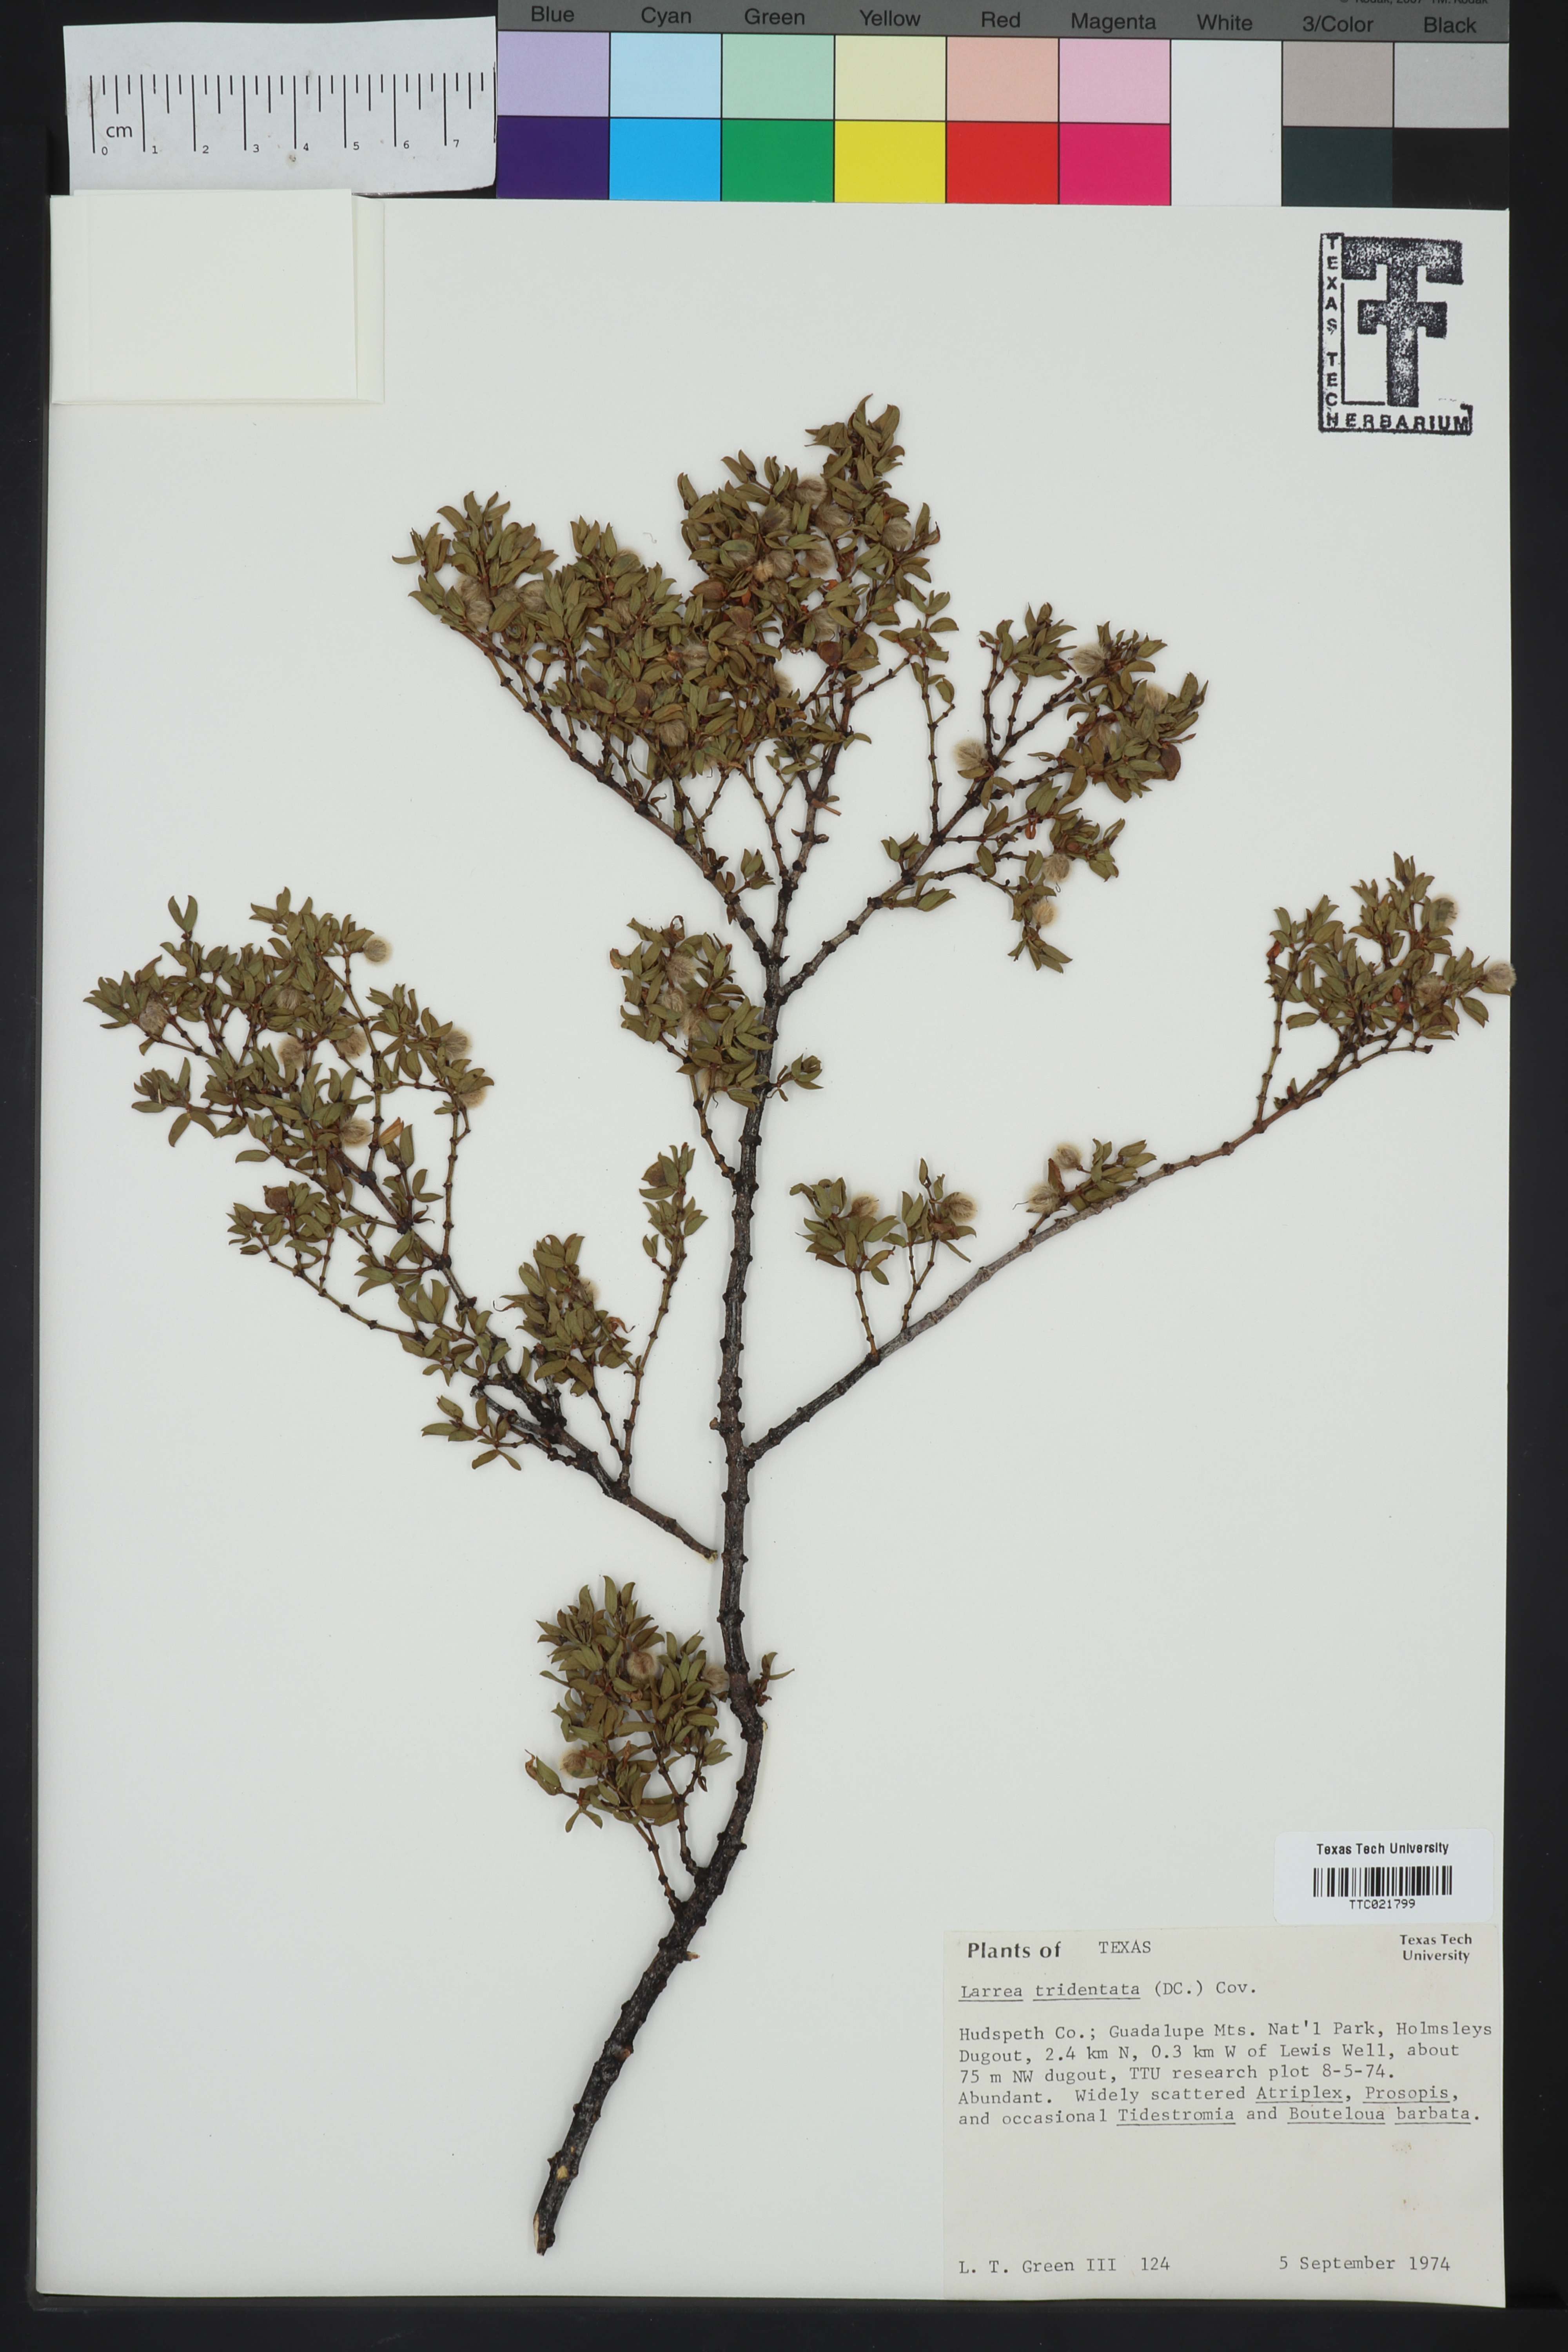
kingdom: Plantae
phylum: Tracheophyta
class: Magnoliopsida
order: Zygophyllales
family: Zygophyllaceae
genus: Larrea
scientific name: Larrea tridentata
